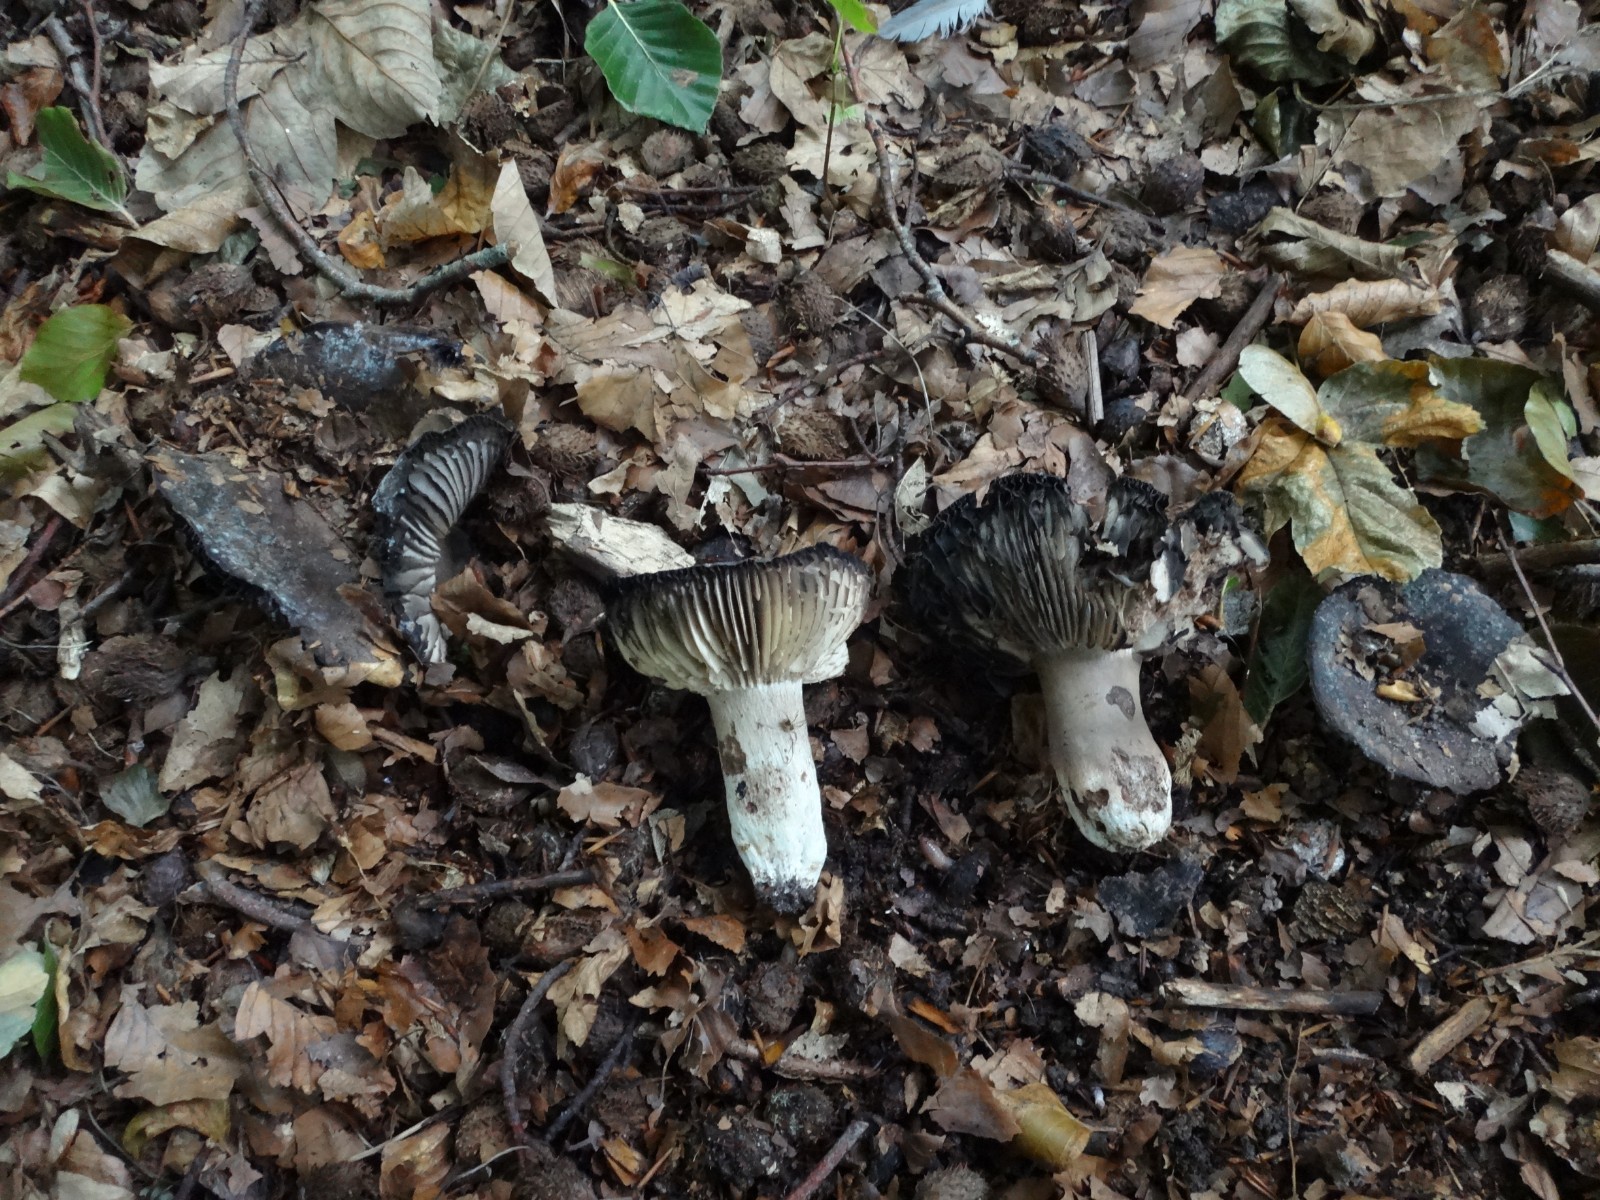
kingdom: Fungi
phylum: Basidiomycota
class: Agaricomycetes
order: Russulales
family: Russulaceae
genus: Russula
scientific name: Russula adusta
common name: sværtende skørhat
